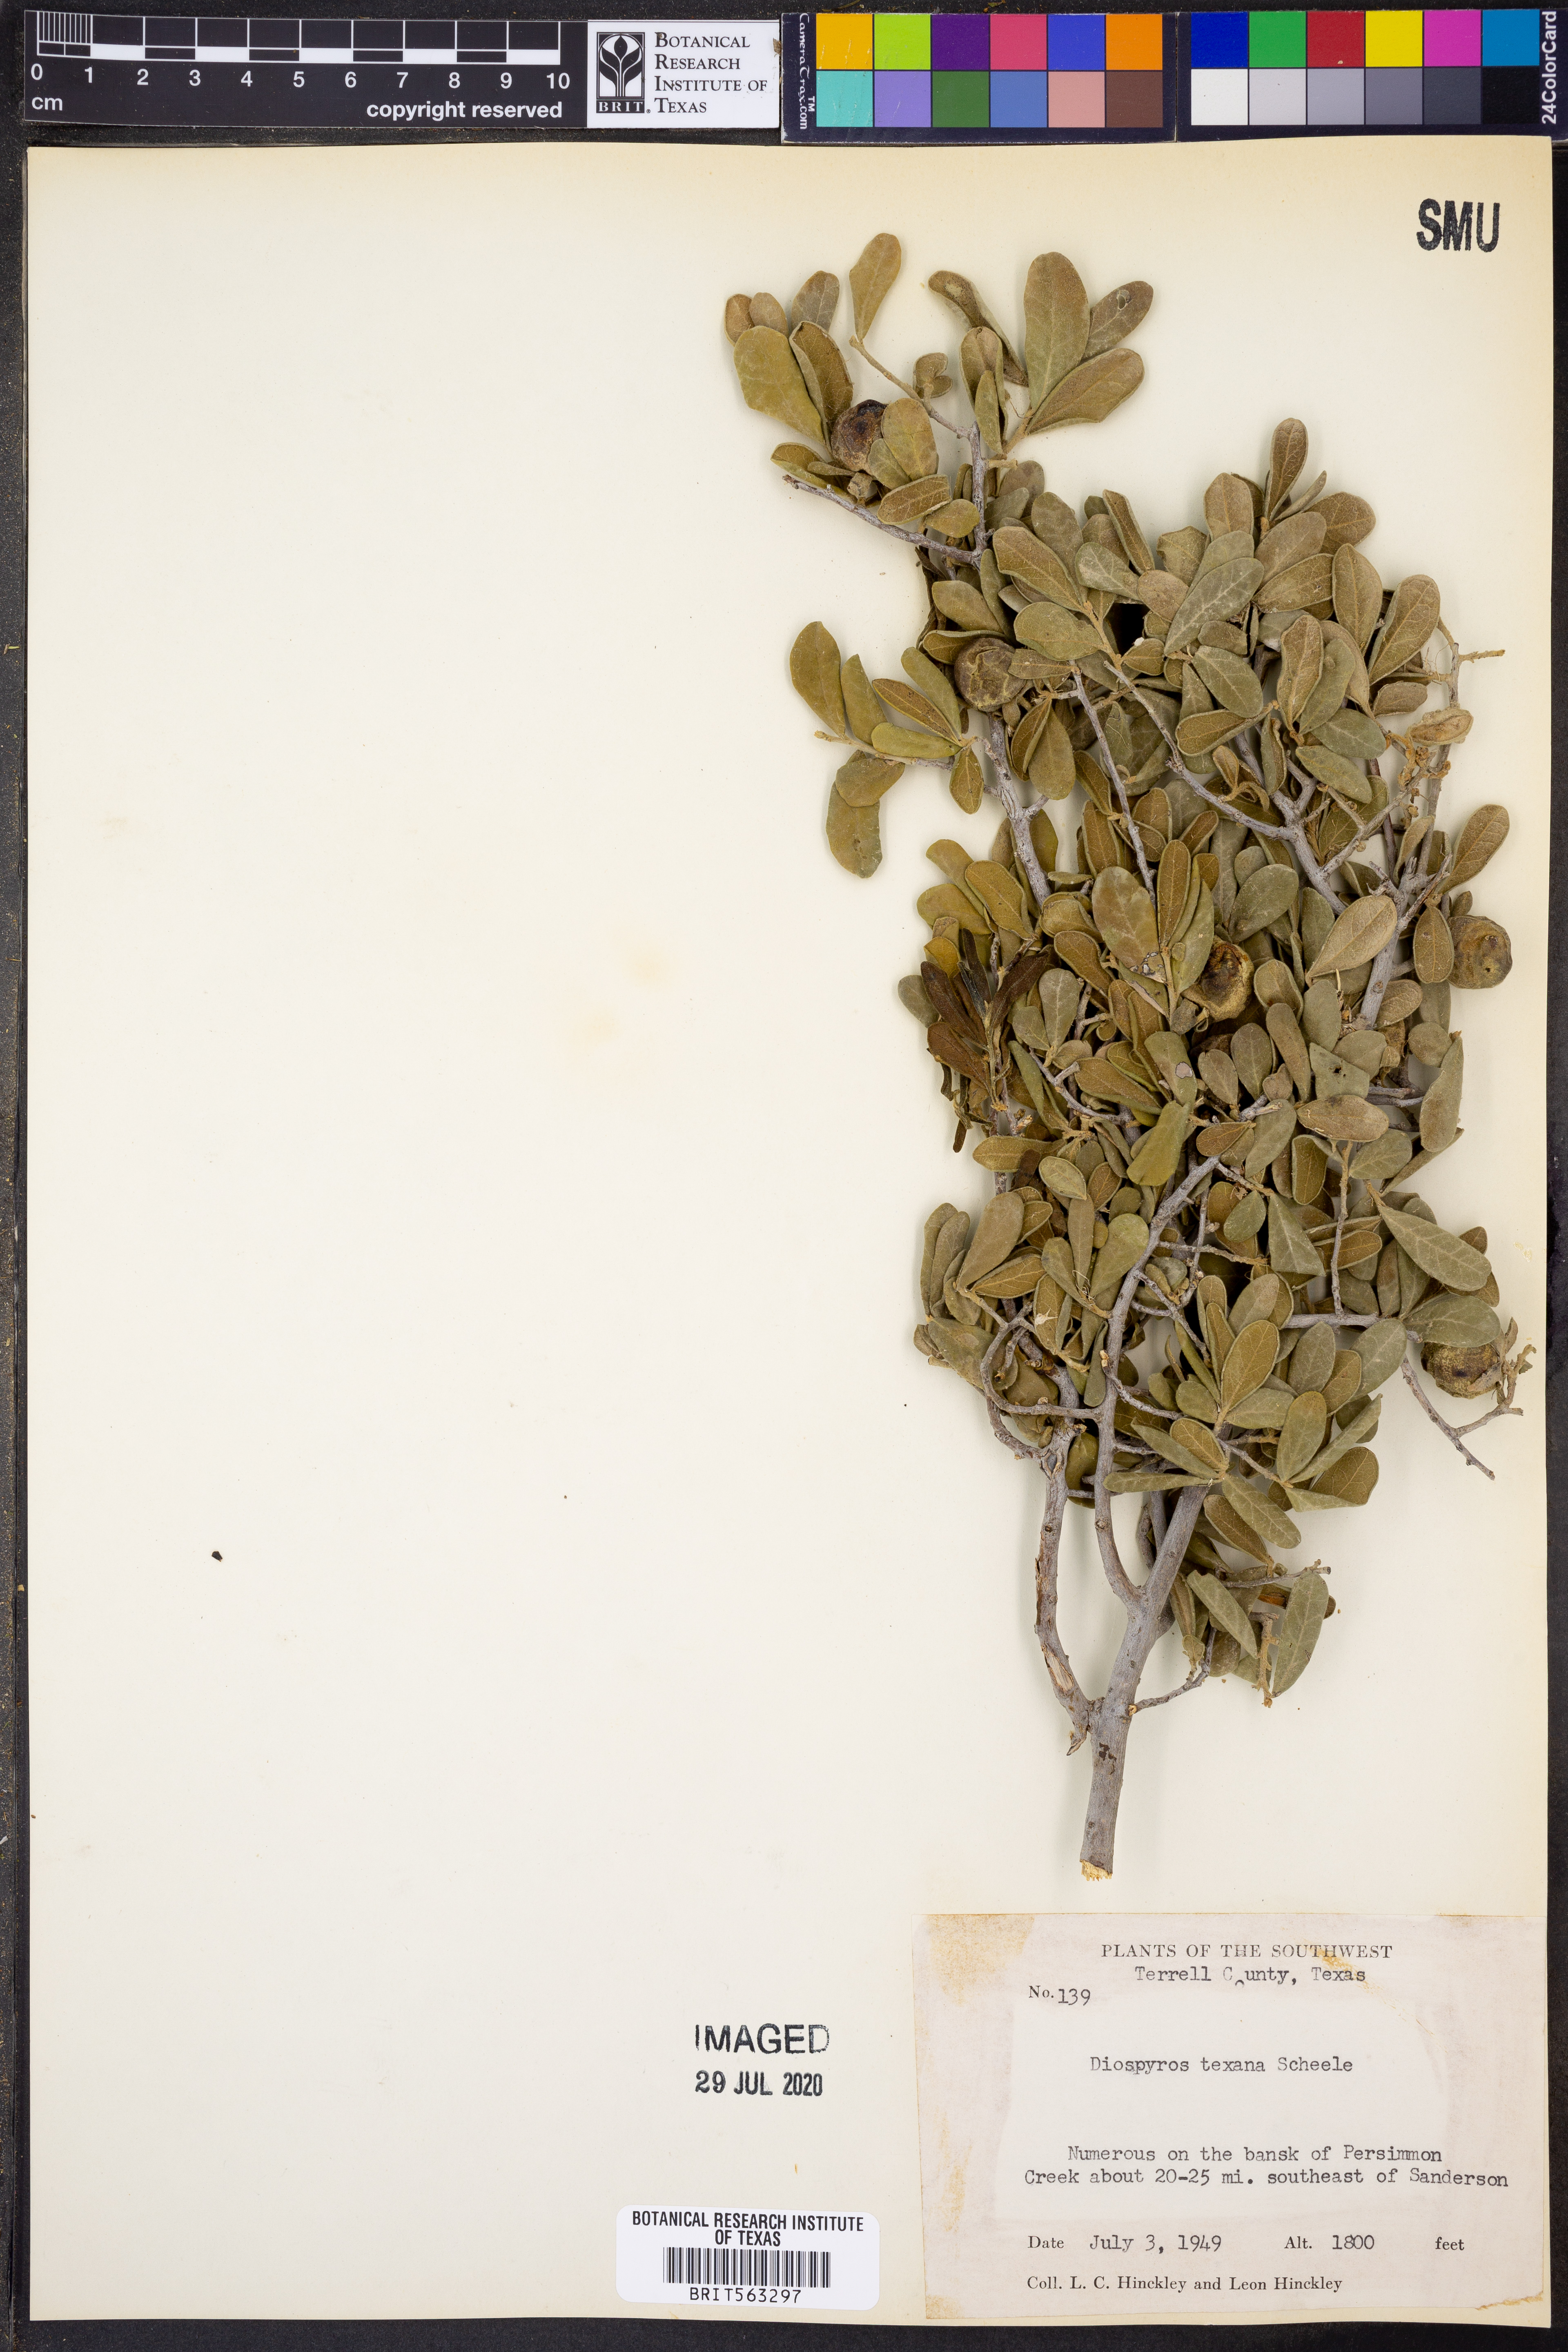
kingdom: Plantae
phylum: Tracheophyta
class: Magnoliopsida
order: Ericales
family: Ebenaceae
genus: Diospyros
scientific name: Diospyros texana
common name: Texas persimmon
